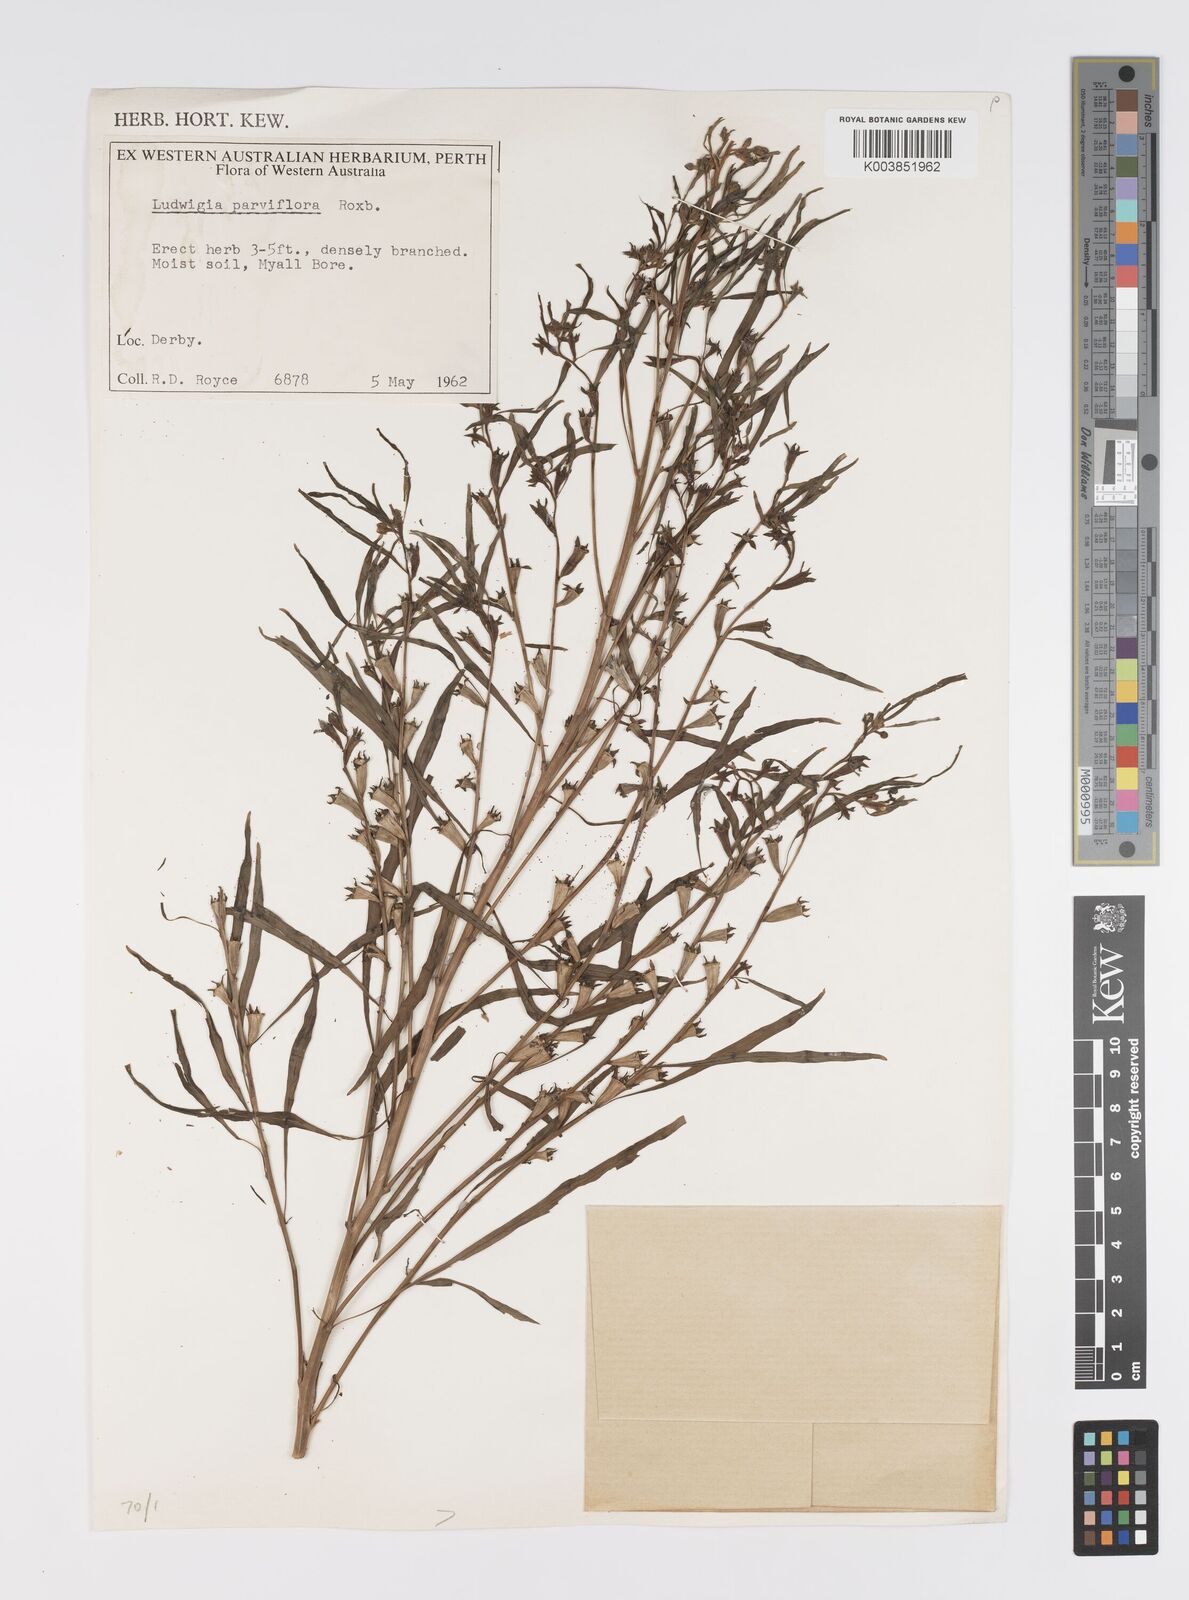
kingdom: Plantae
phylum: Tracheophyta
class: Magnoliopsida
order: Myrtales
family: Onagraceae
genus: Ludwigia
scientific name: Ludwigia perennis
